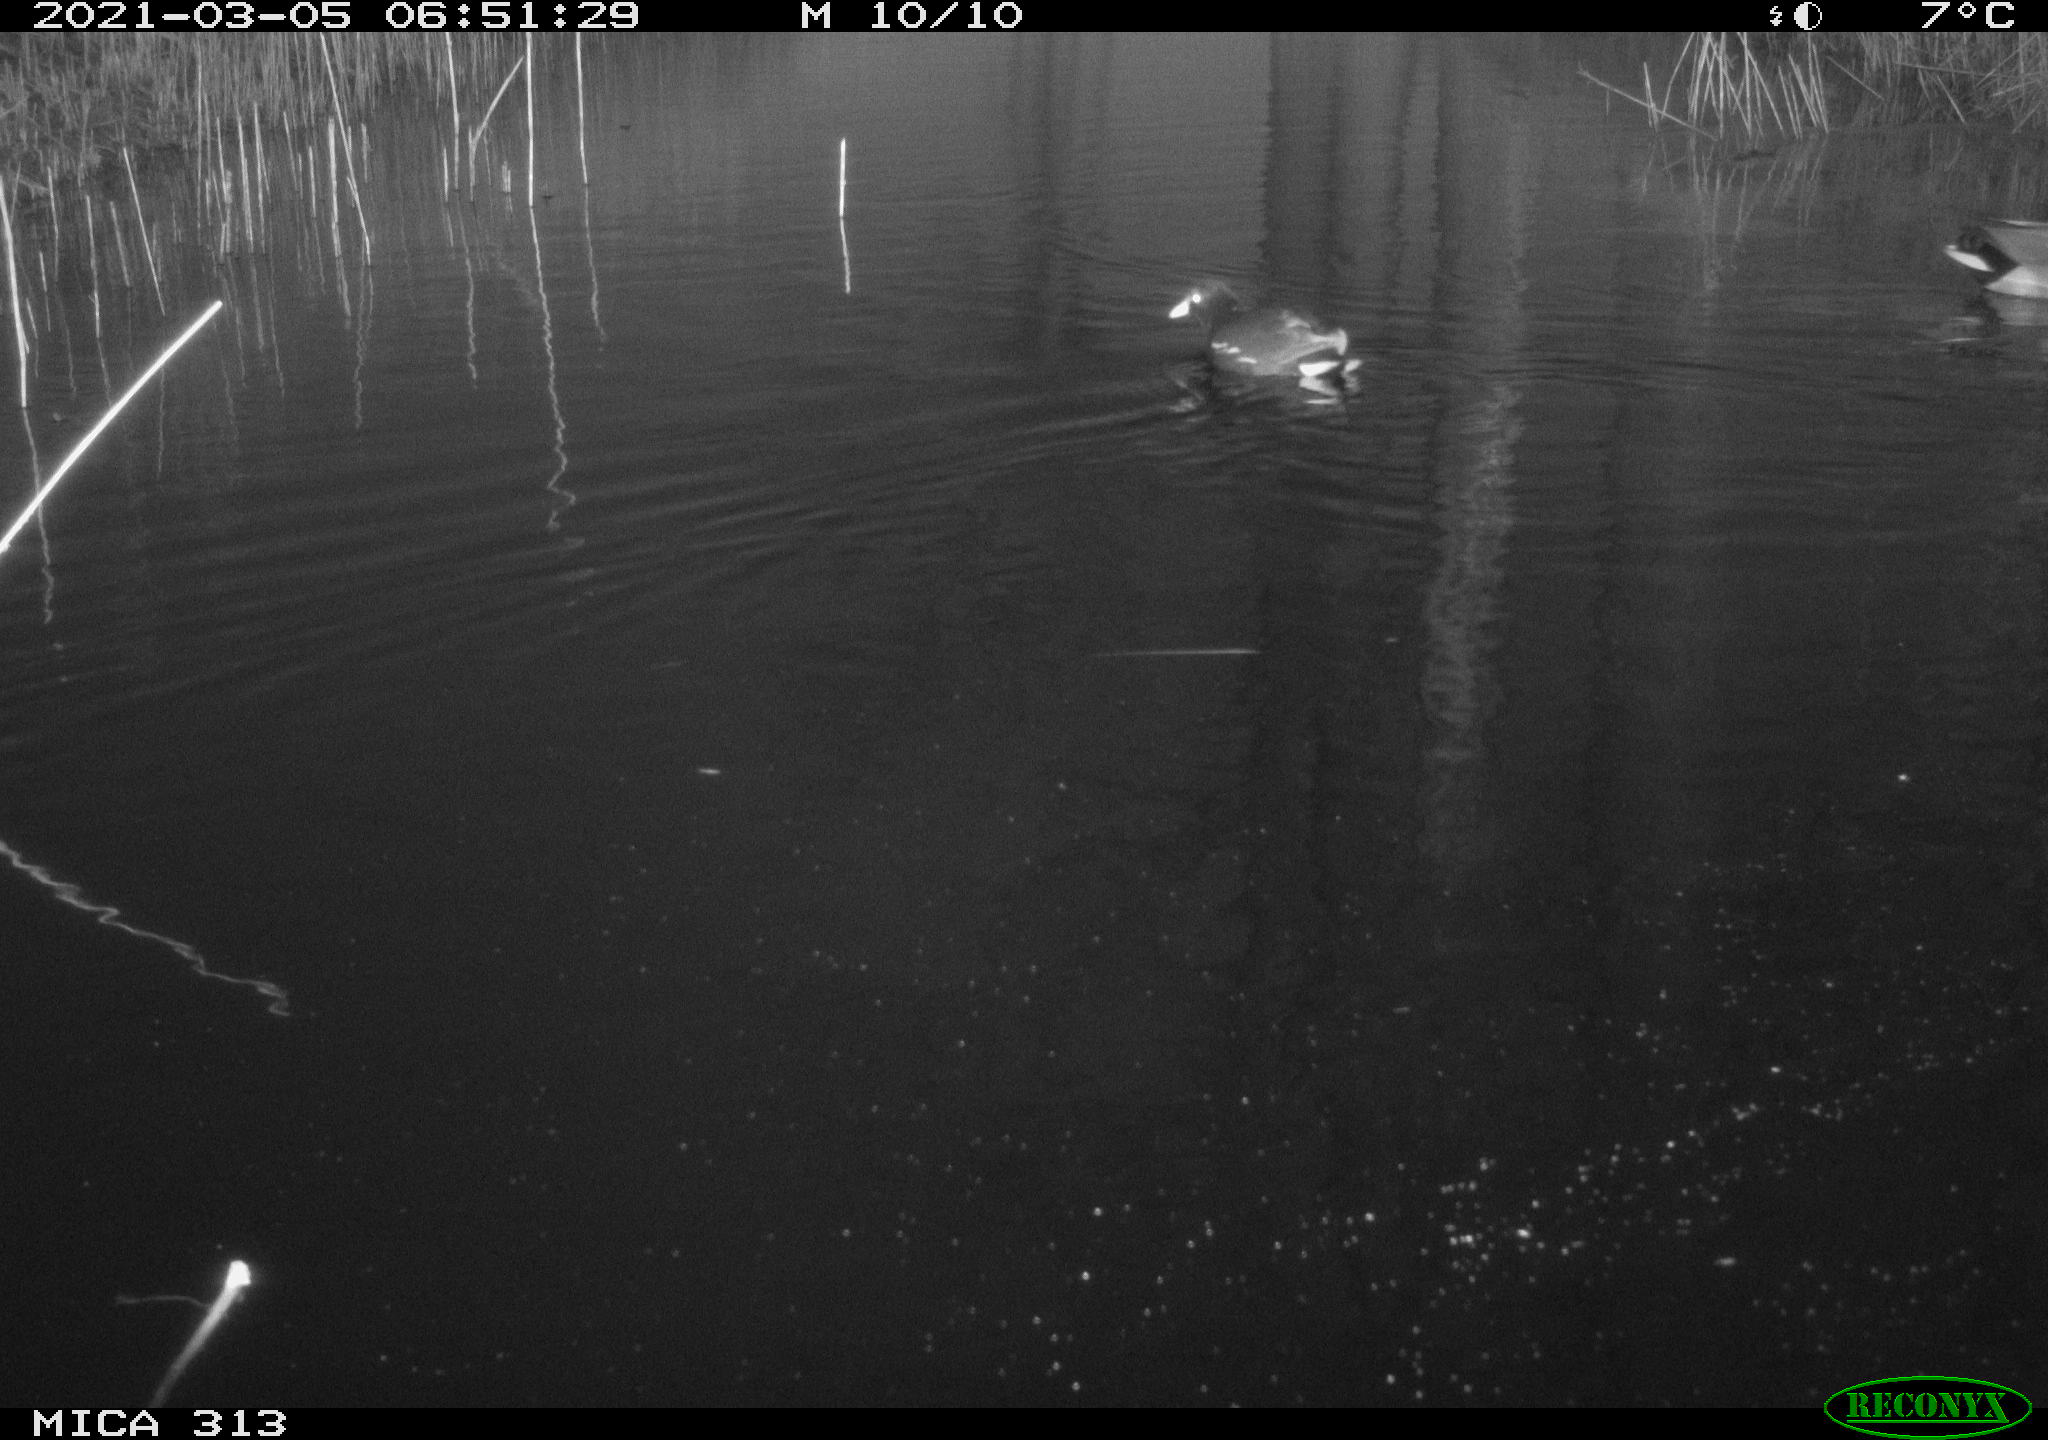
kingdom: Animalia
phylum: Chordata
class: Aves
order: Gruiformes
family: Rallidae
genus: Gallinula
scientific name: Gallinula chloropus
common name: Common moorhen
